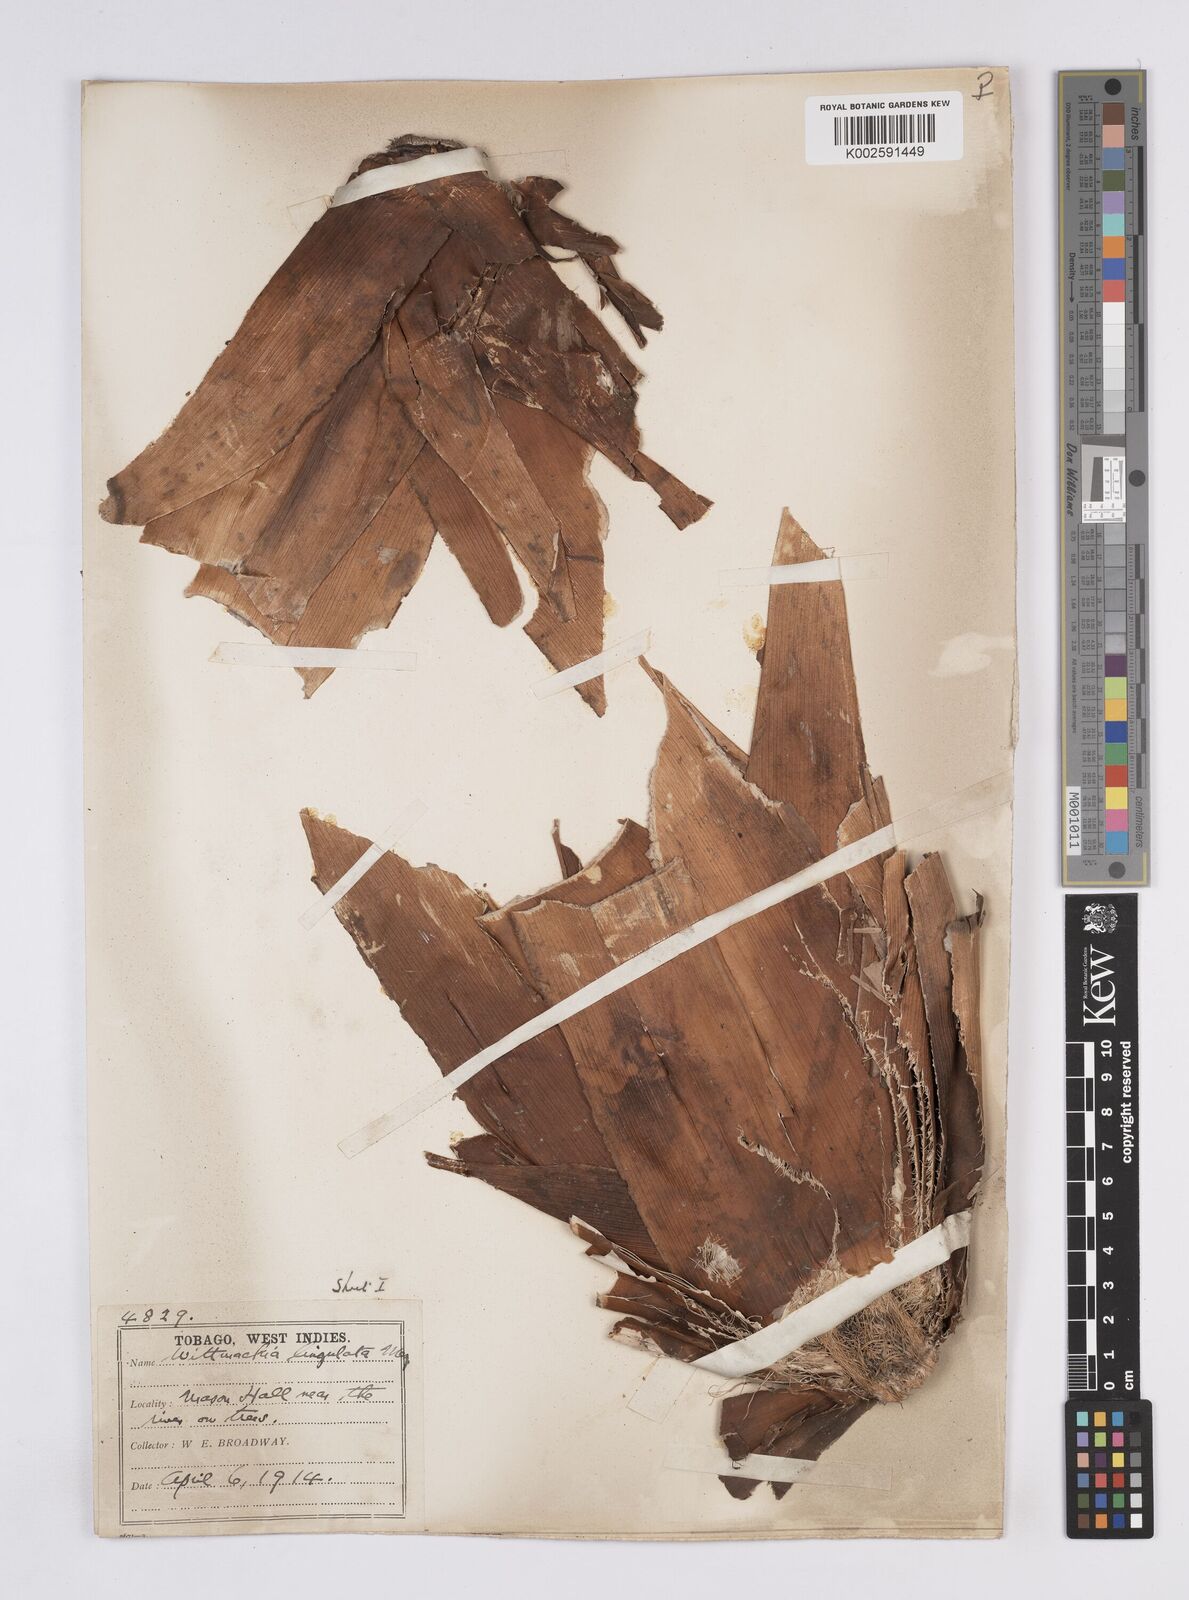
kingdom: Plantae
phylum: Tracheophyta
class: Liliopsida
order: Poales
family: Bromeliaceae
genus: Wittmackia
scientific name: Wittmackia lingulata
